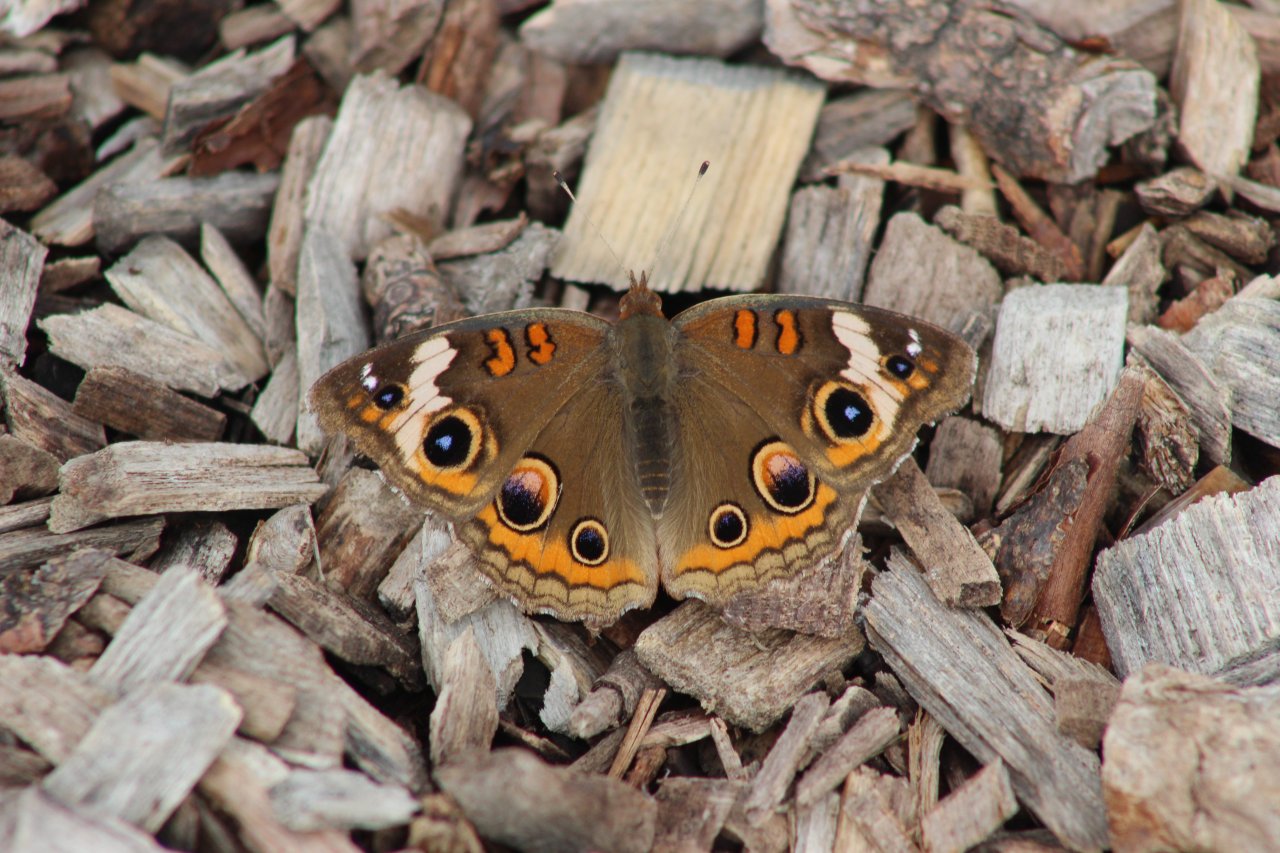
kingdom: Animalia
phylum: Arthropoda
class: Insecta
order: Lepidoptera
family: Nymphalidae
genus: Junonia
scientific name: Junonia coenia
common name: Common Buckeye
